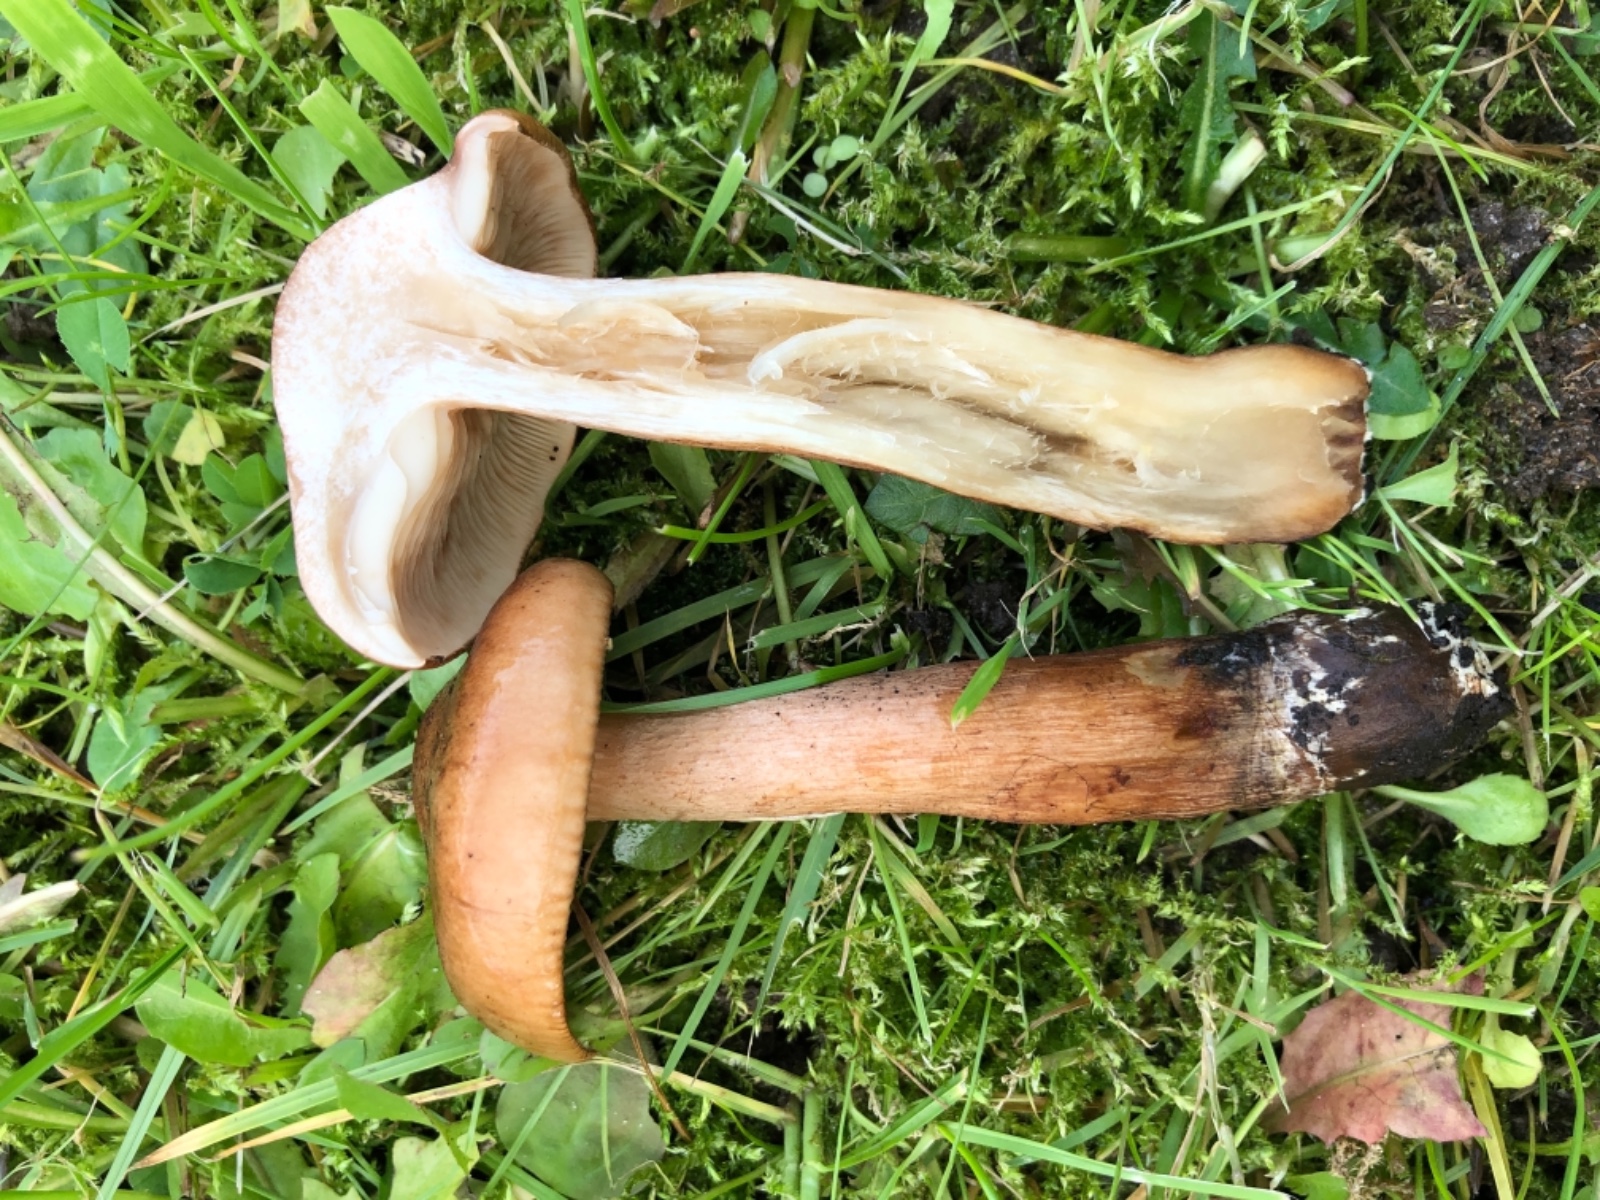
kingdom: Fungi
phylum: Basidiomycota
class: Agaricomycetes
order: Agaricales
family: Tricholomataceae
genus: Tricholoma
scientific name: Tricholoma fulvum
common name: birke-ridderhat
